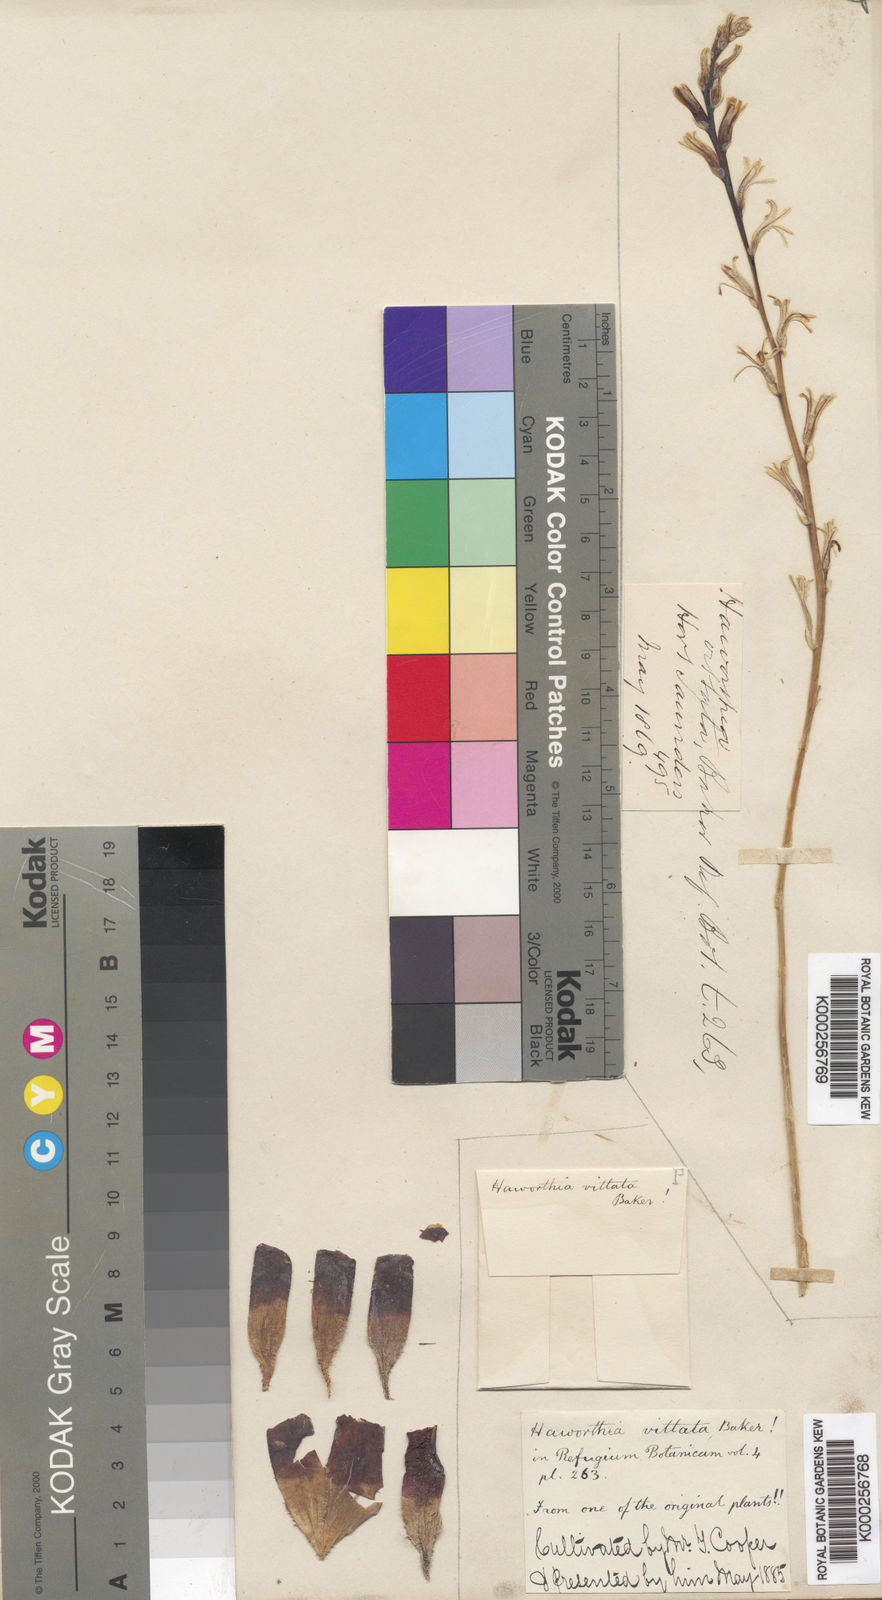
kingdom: Plantae
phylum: Tracheophyta
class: Liliopsida
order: Asparagales
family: Asphodelaceae
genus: Haworthia
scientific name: Haworthia cooperi
